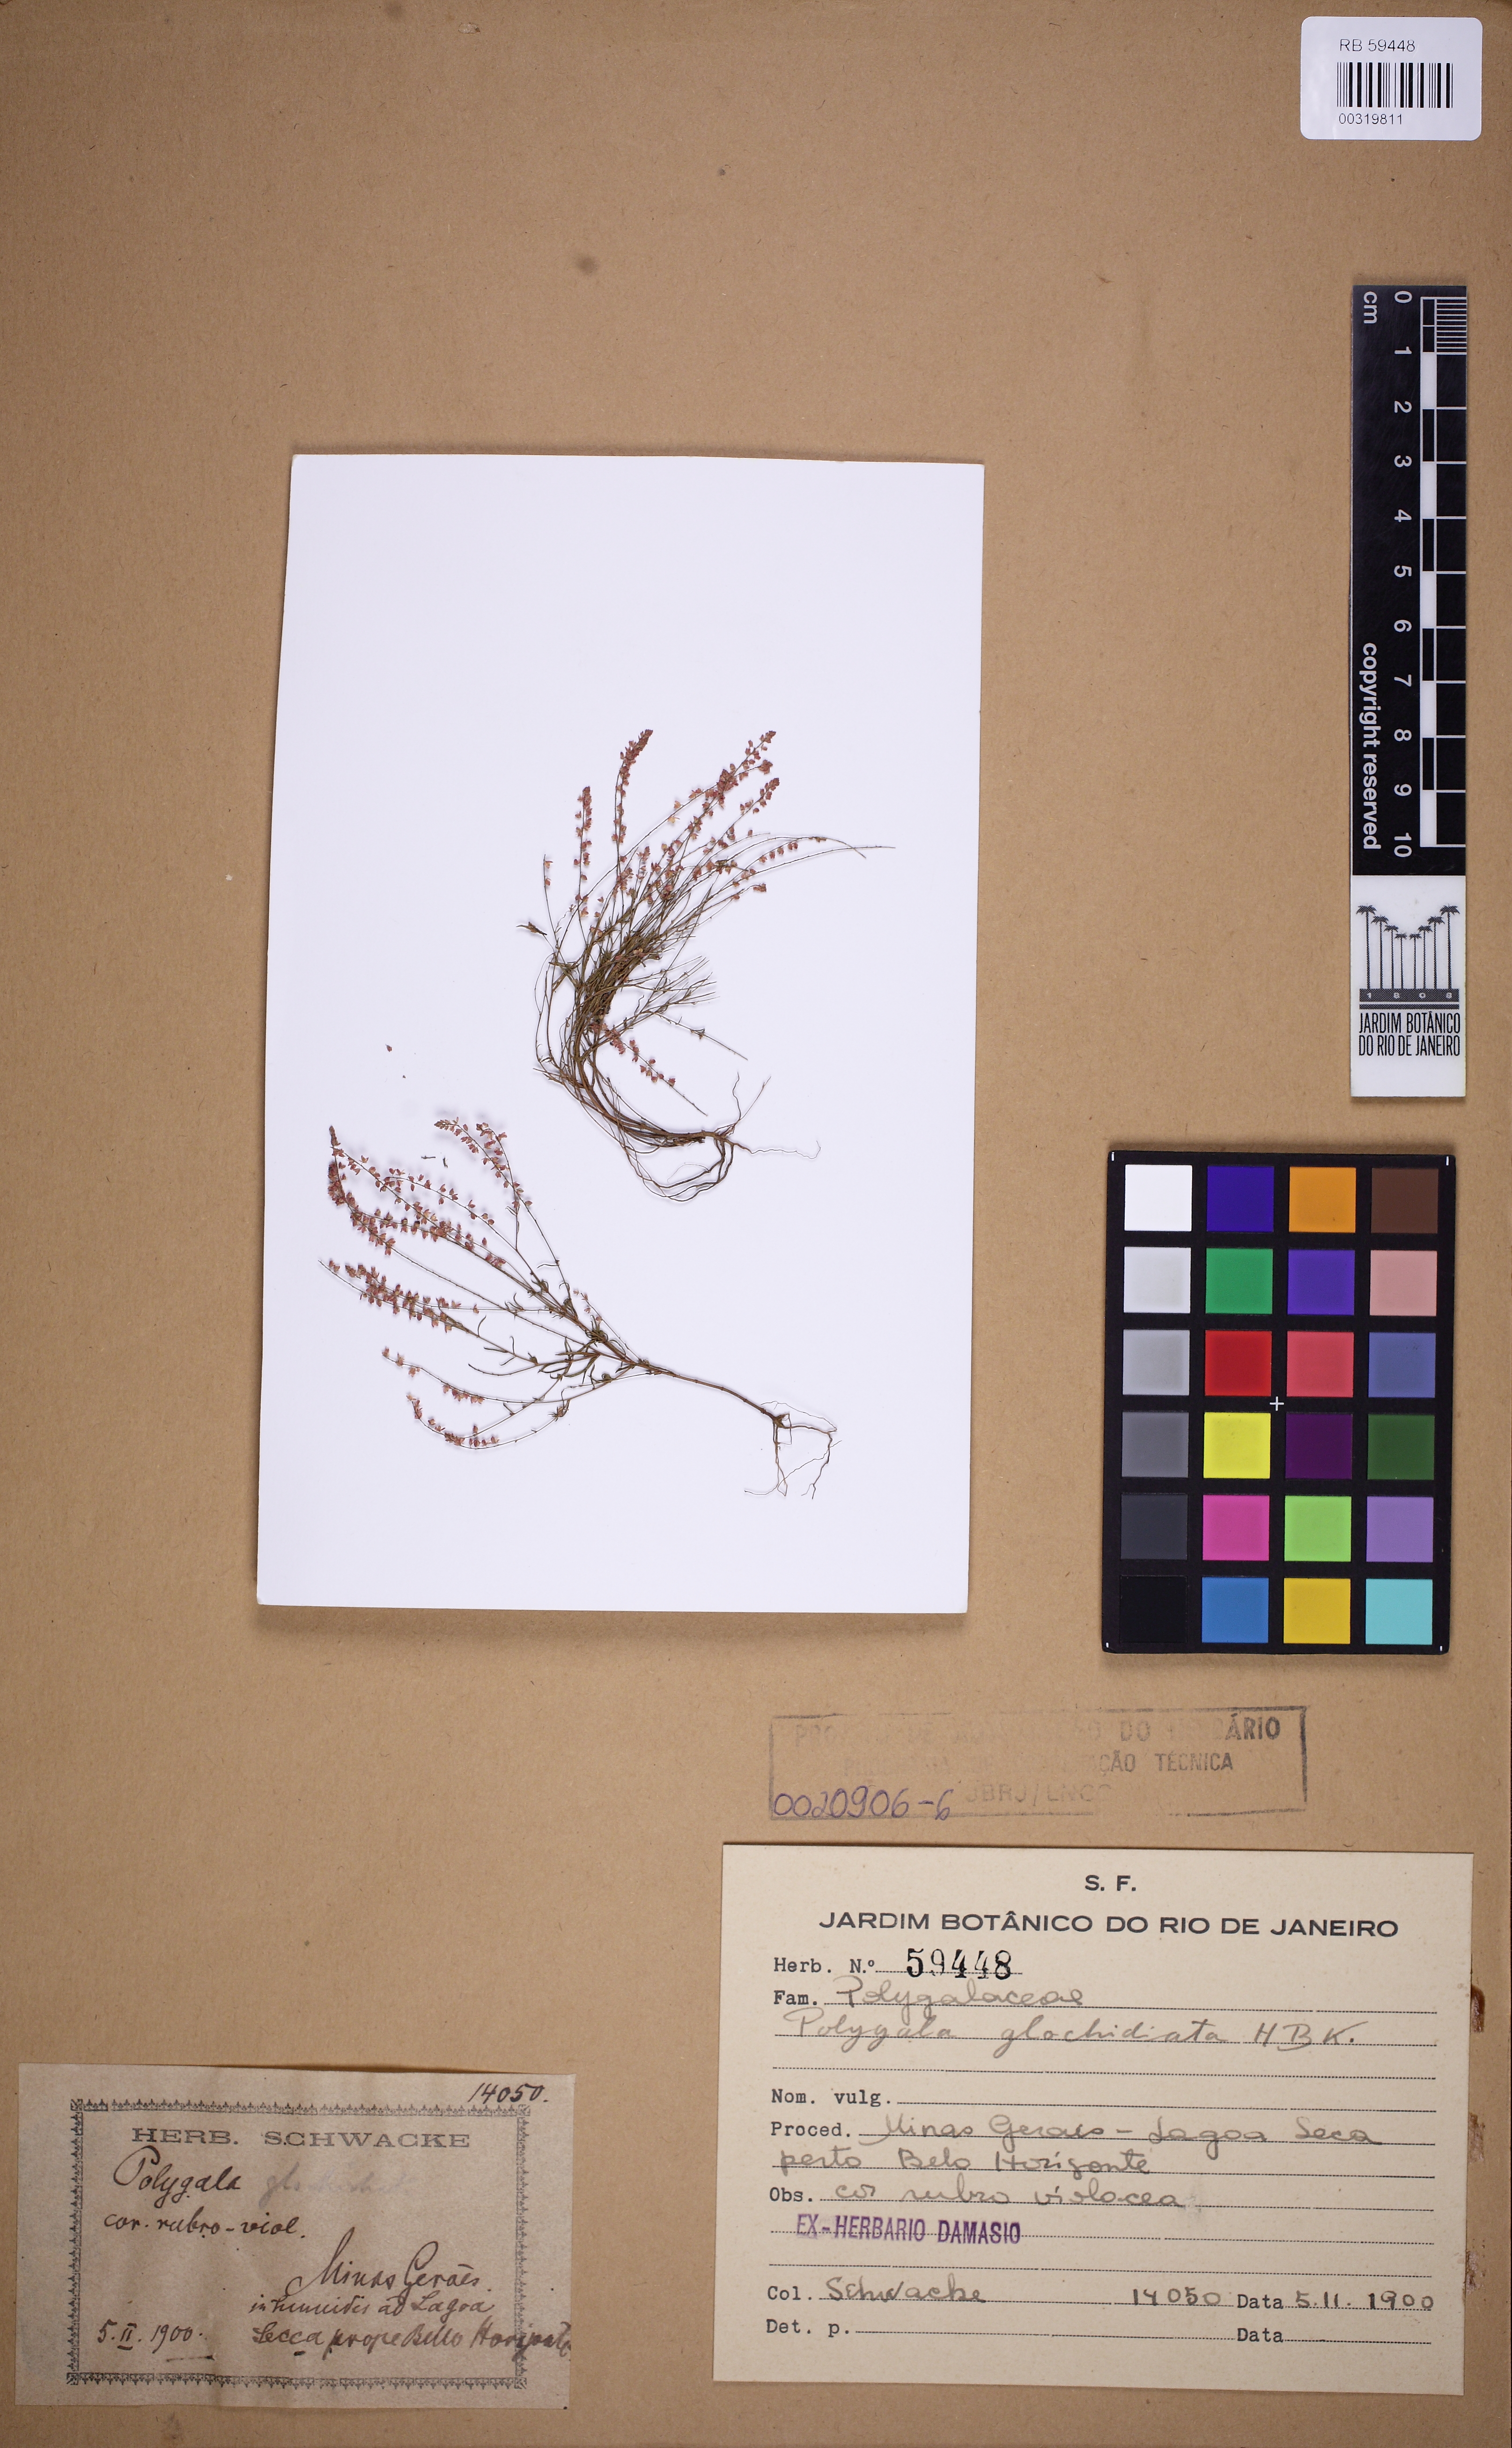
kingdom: Plantae
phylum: Tracheophyta
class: Magnoliopsida
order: Fabales
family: Polygalaceae
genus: Polygala
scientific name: Polygala glochidiata
